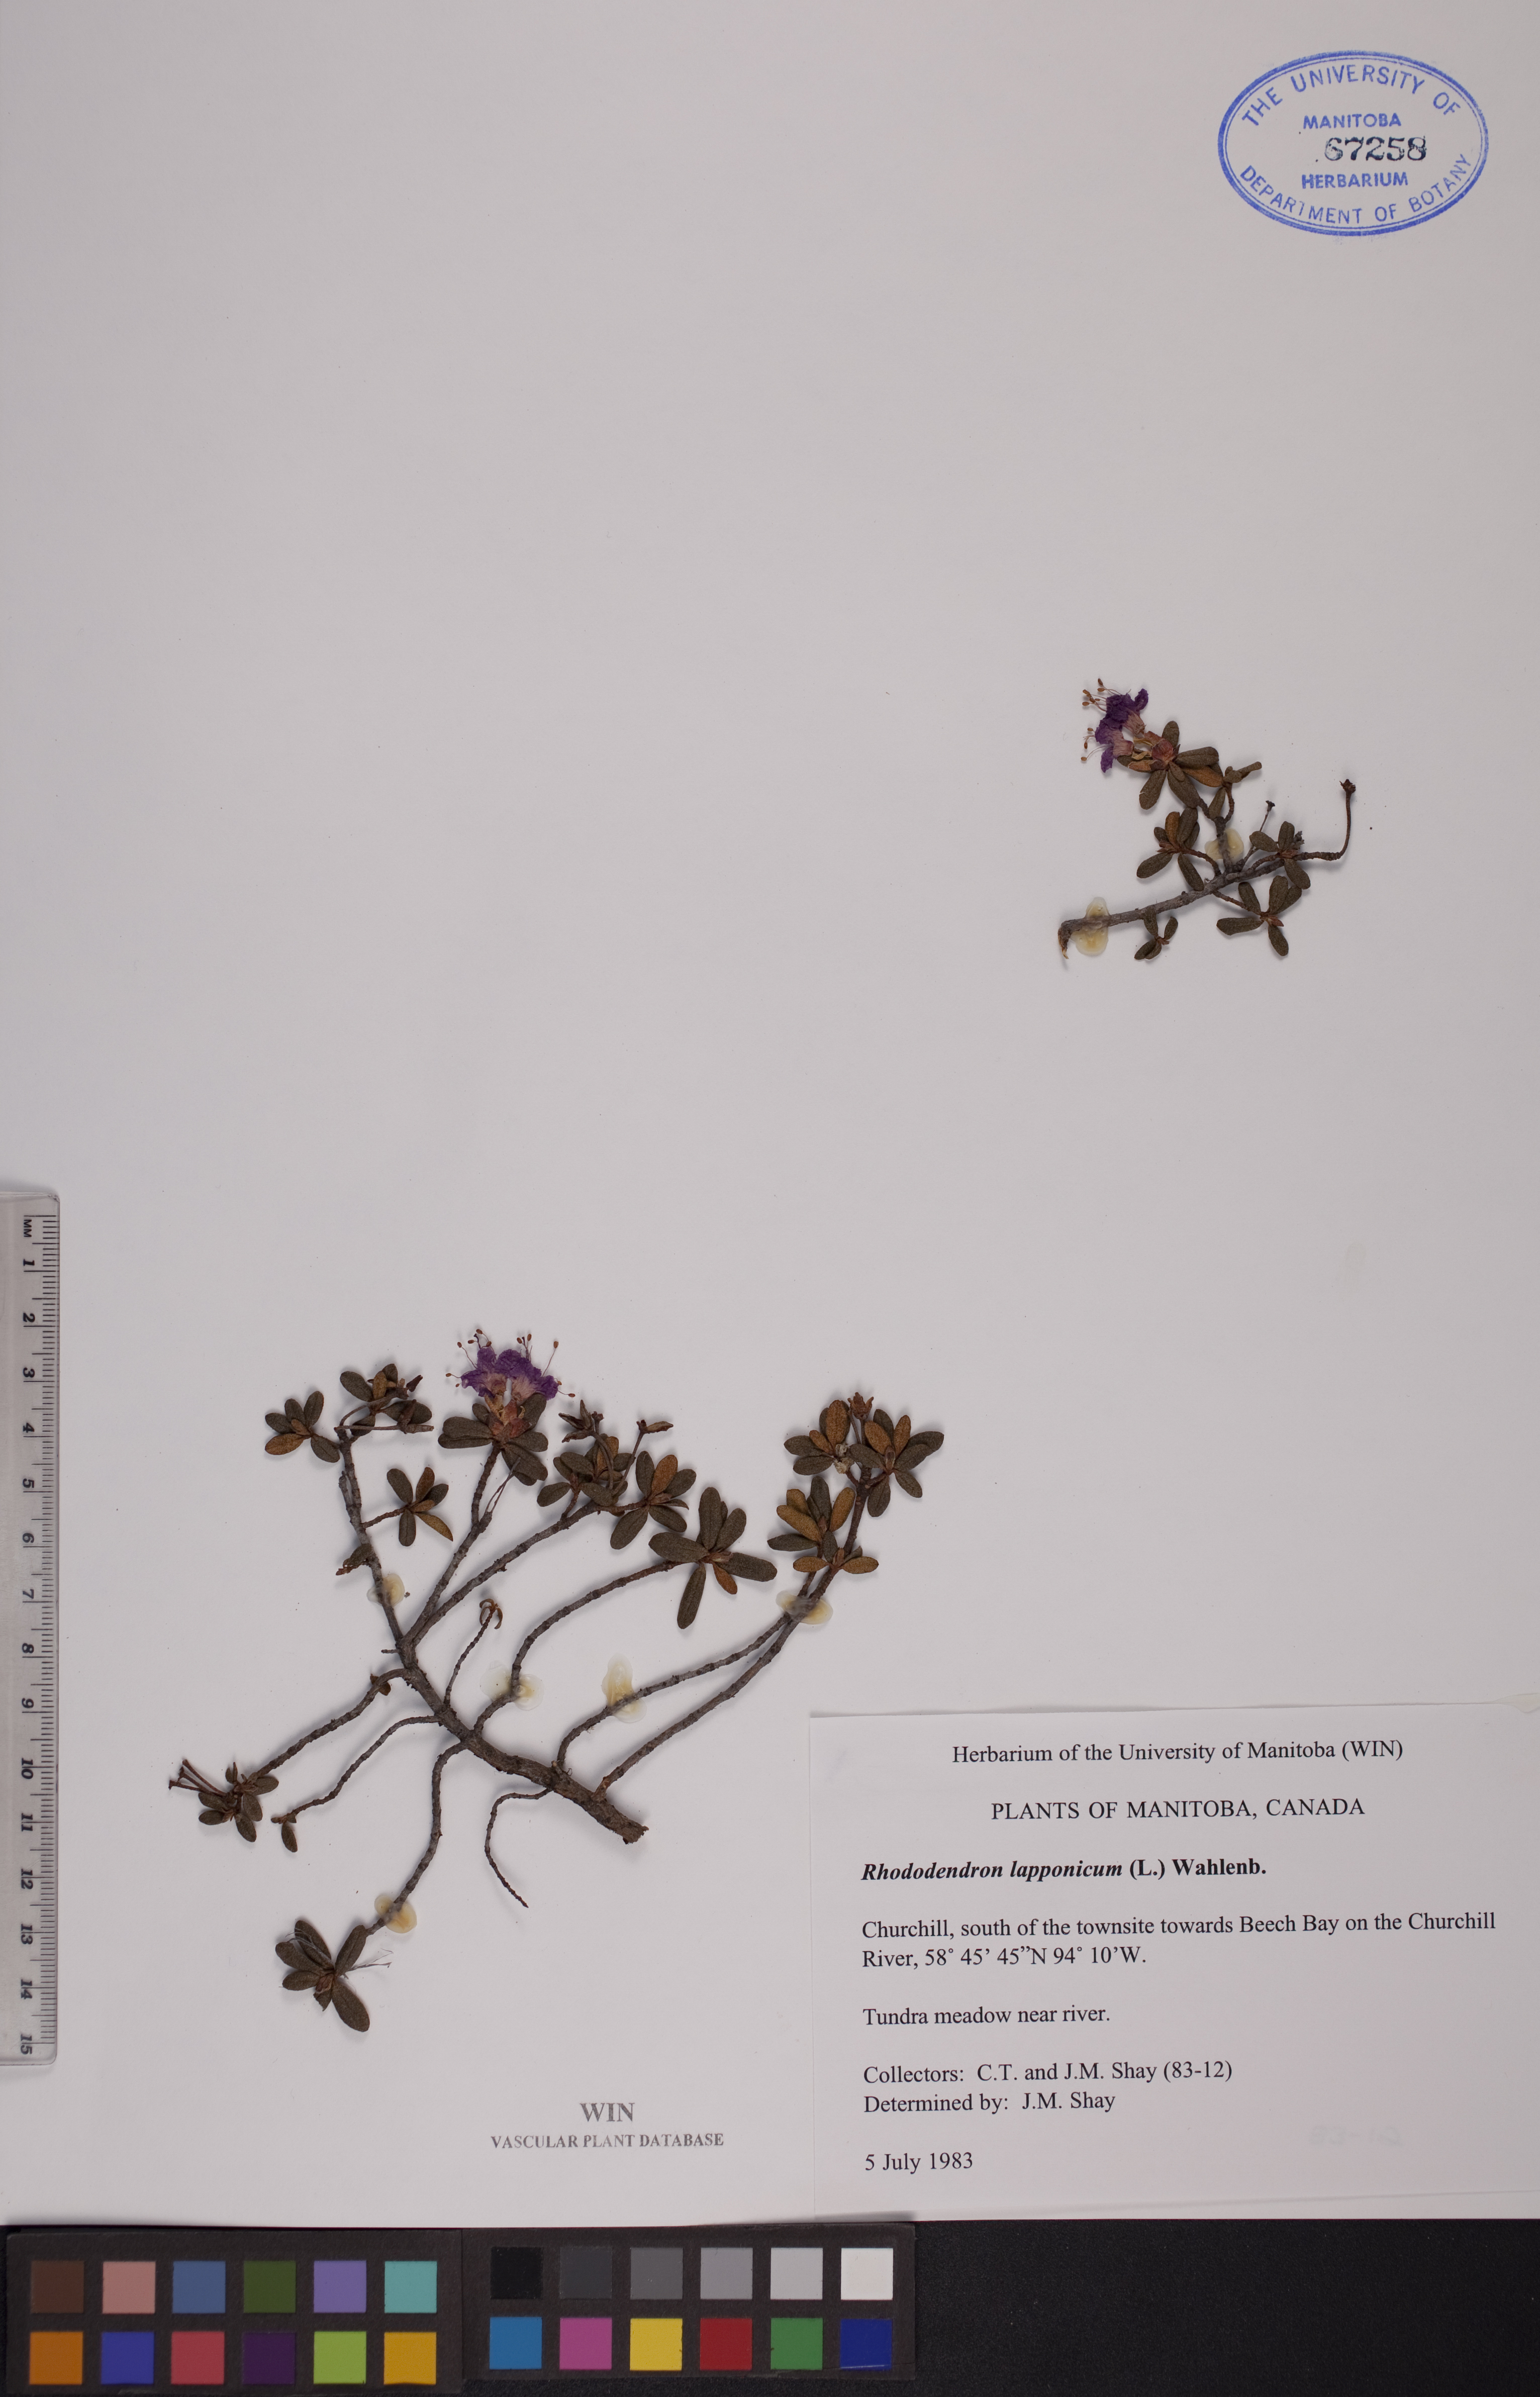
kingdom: Plantae
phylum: Tracheophyta
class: Magnoliopsida
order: Ericales
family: Ericaceae
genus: Rhododendron
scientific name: Rhododendron lapponicum
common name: Lapland rhododendron
